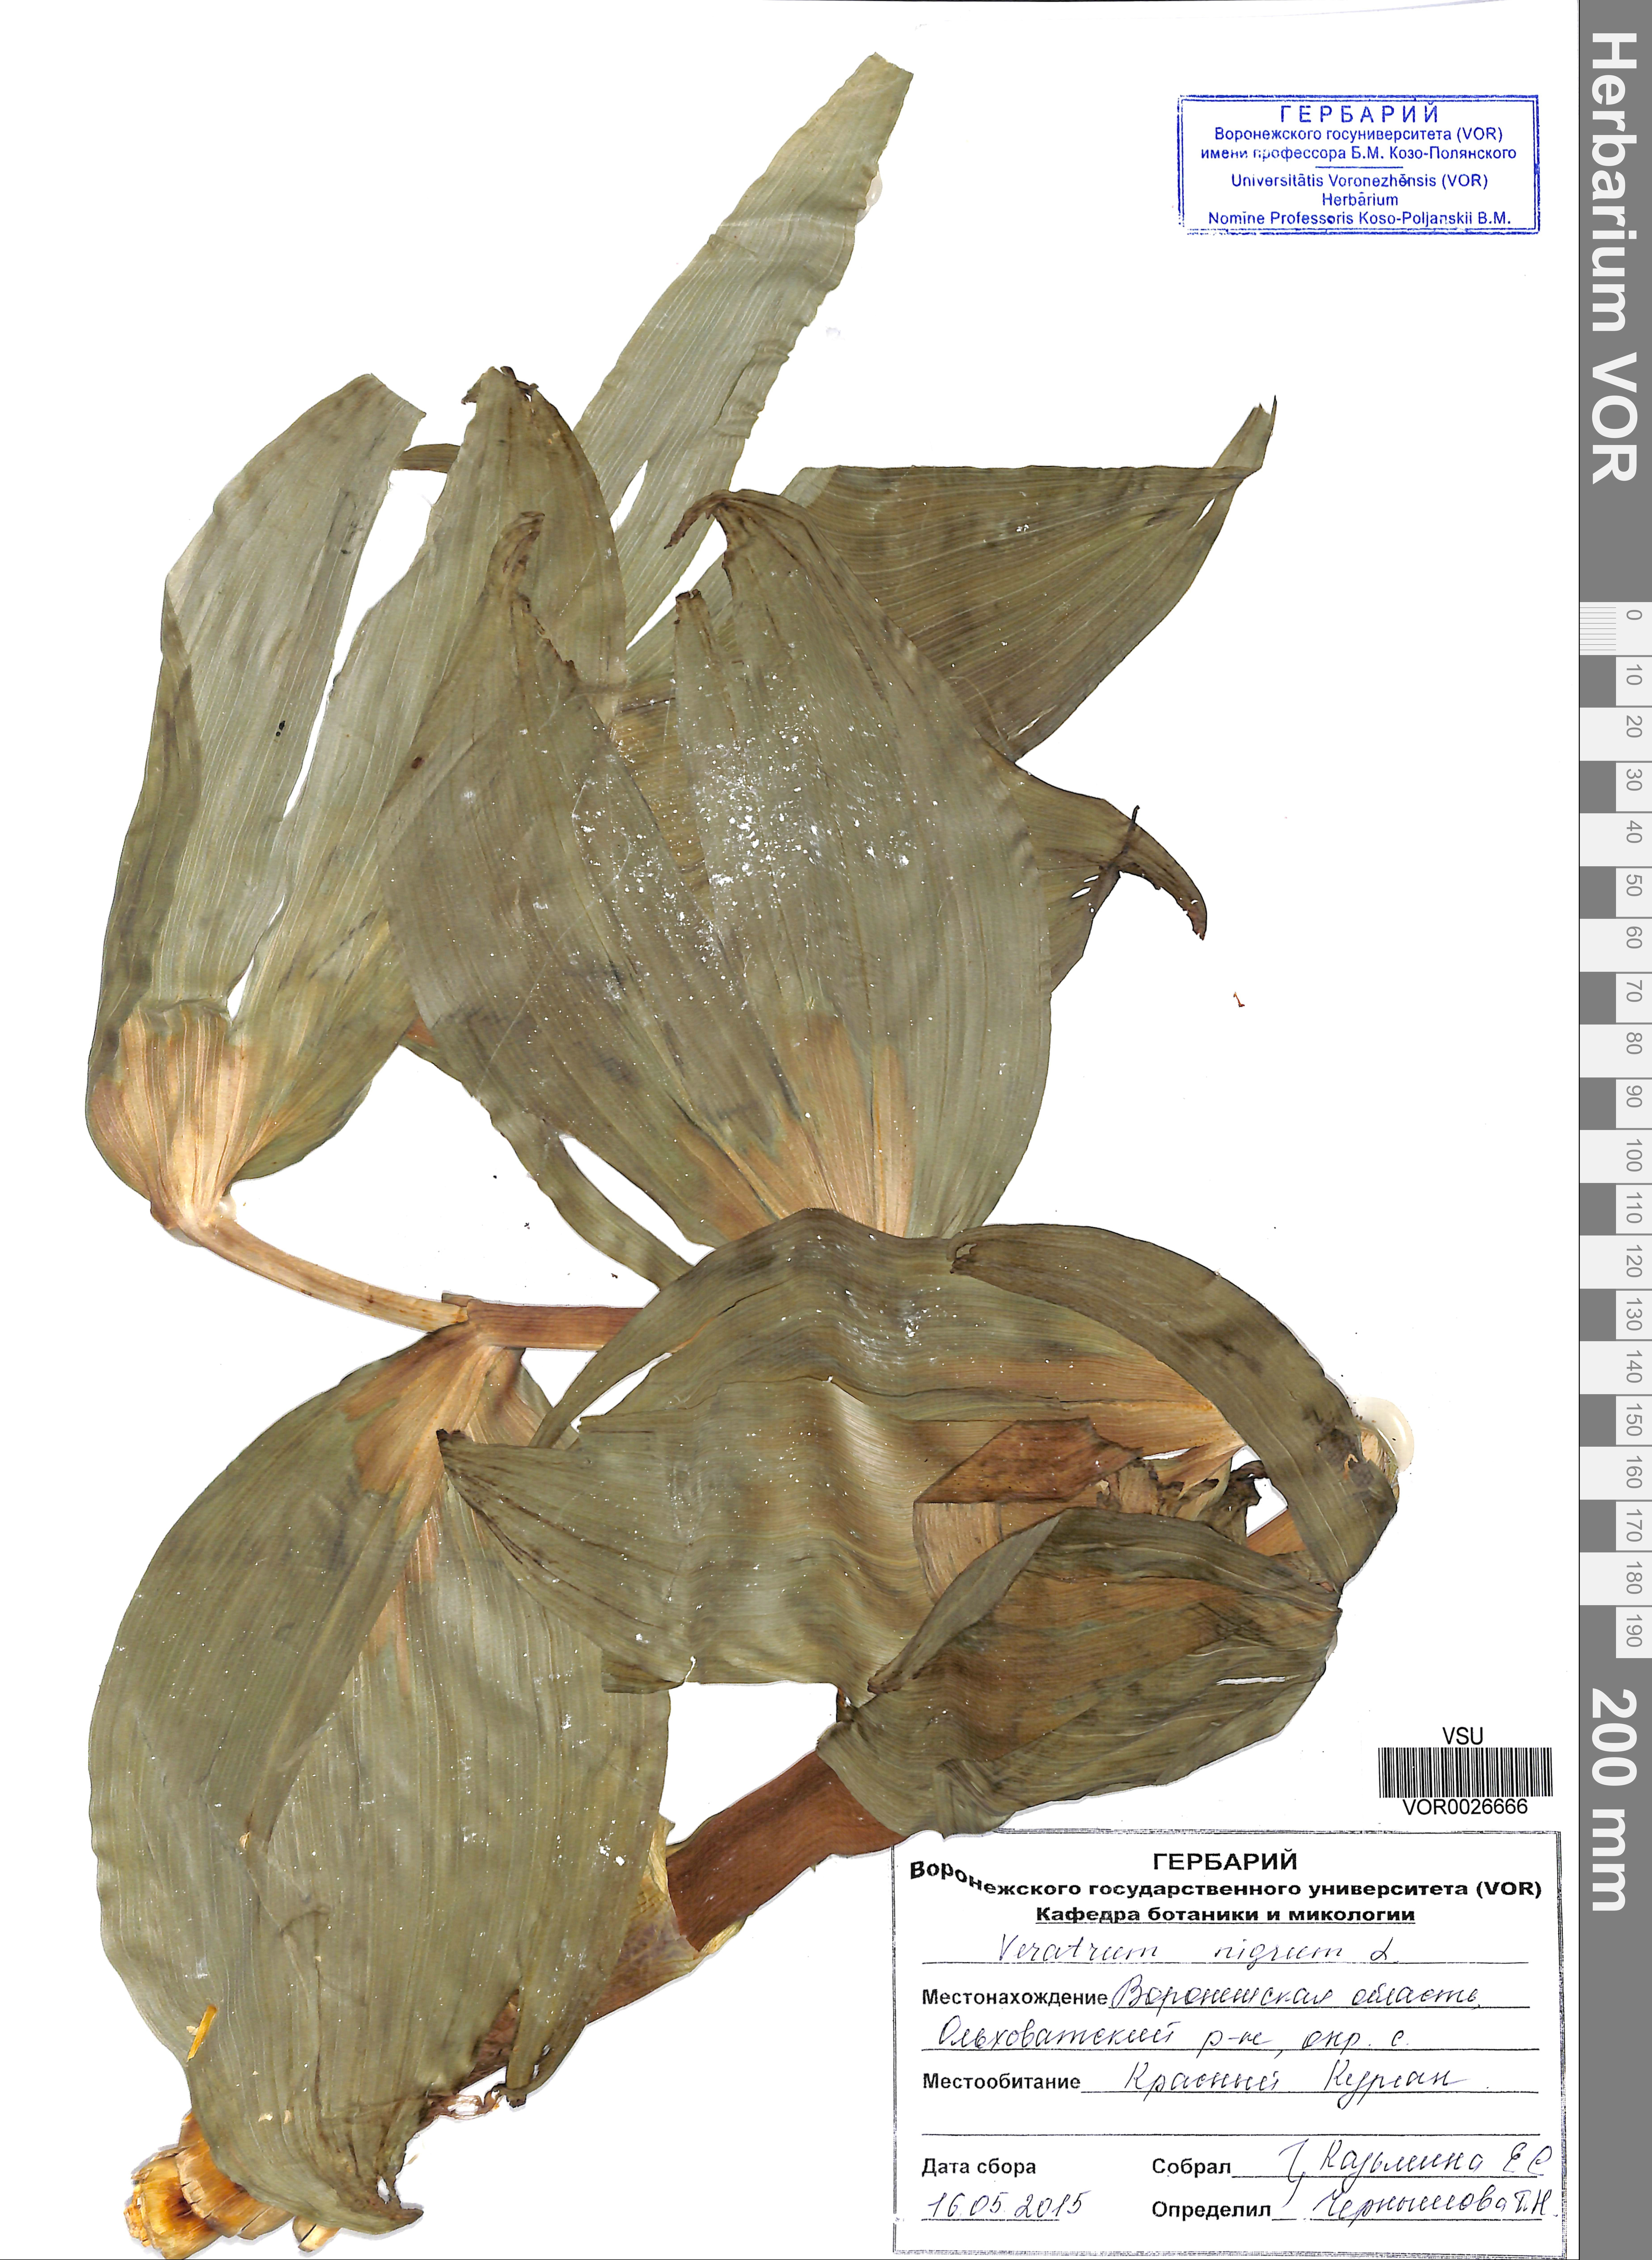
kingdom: Plantae
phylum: Tracheophyta
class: Liliopsida
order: Liliales
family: Melanthiaceae
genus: Veratrum
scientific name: Veratrum nigrum
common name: Black veratrum
